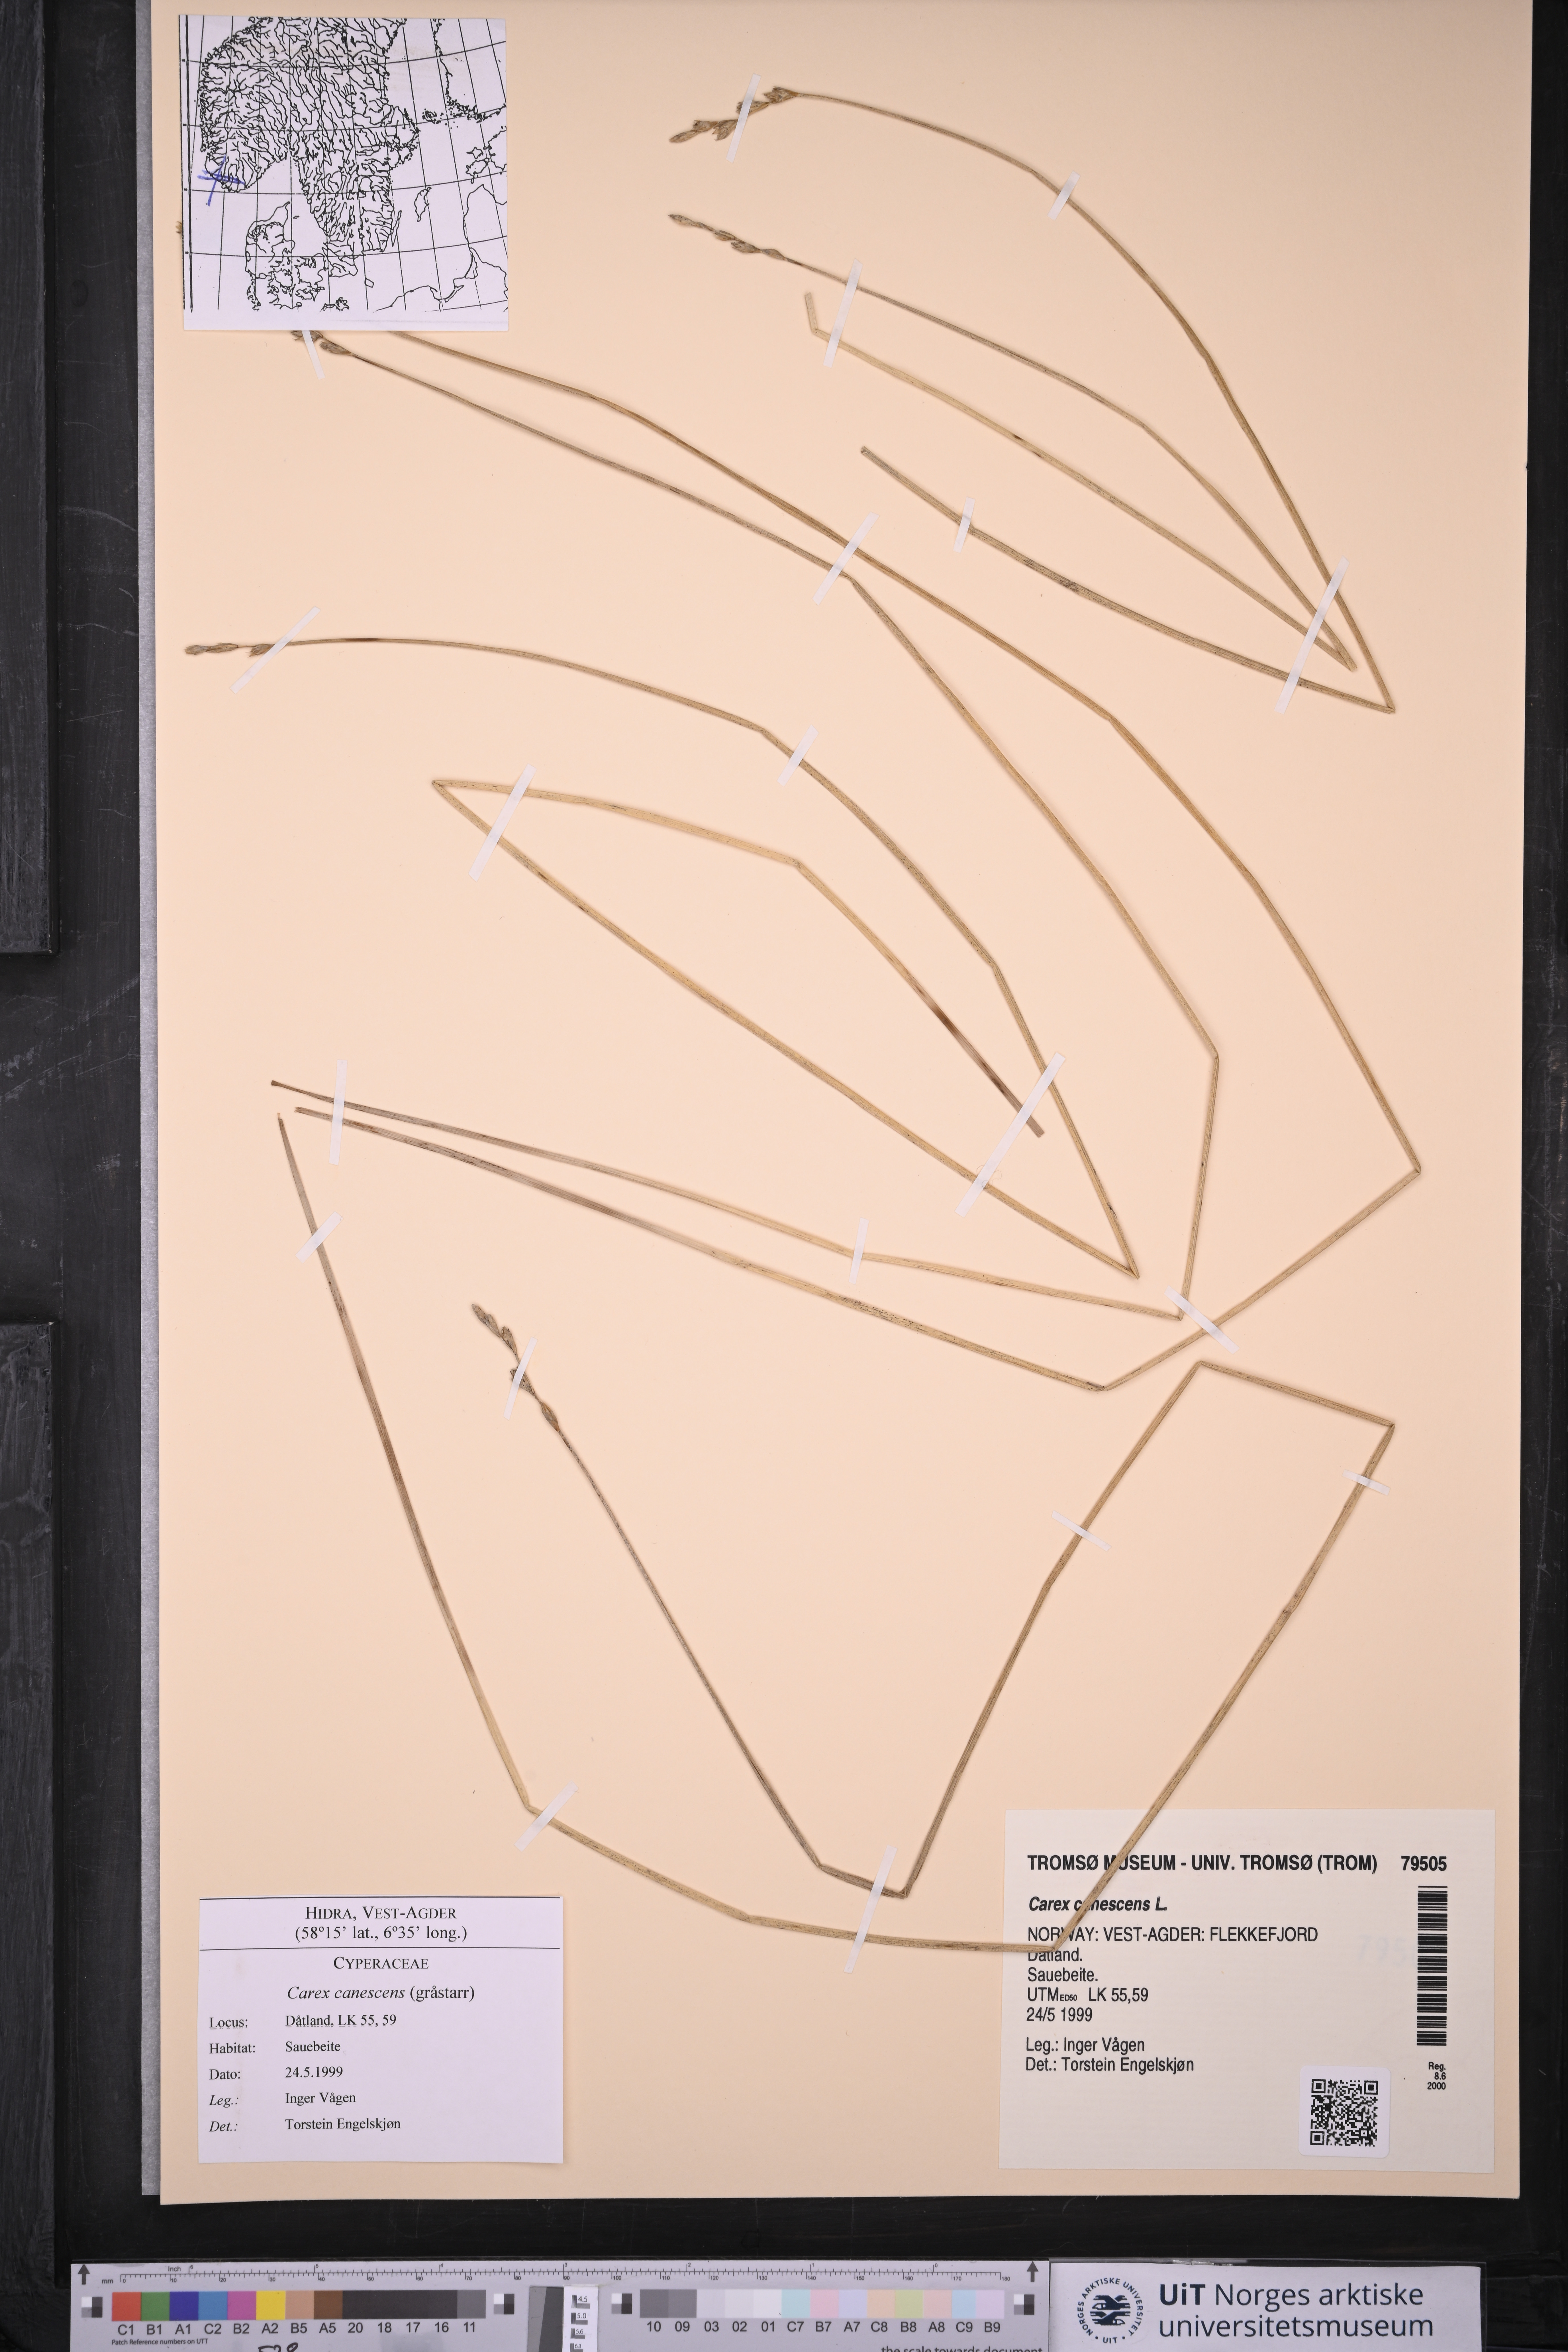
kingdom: Plantae
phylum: Tracheophyta
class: Liliopsida
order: Poales
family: Cyperaceae
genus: Carex
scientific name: Carex canescens
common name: White sedge
